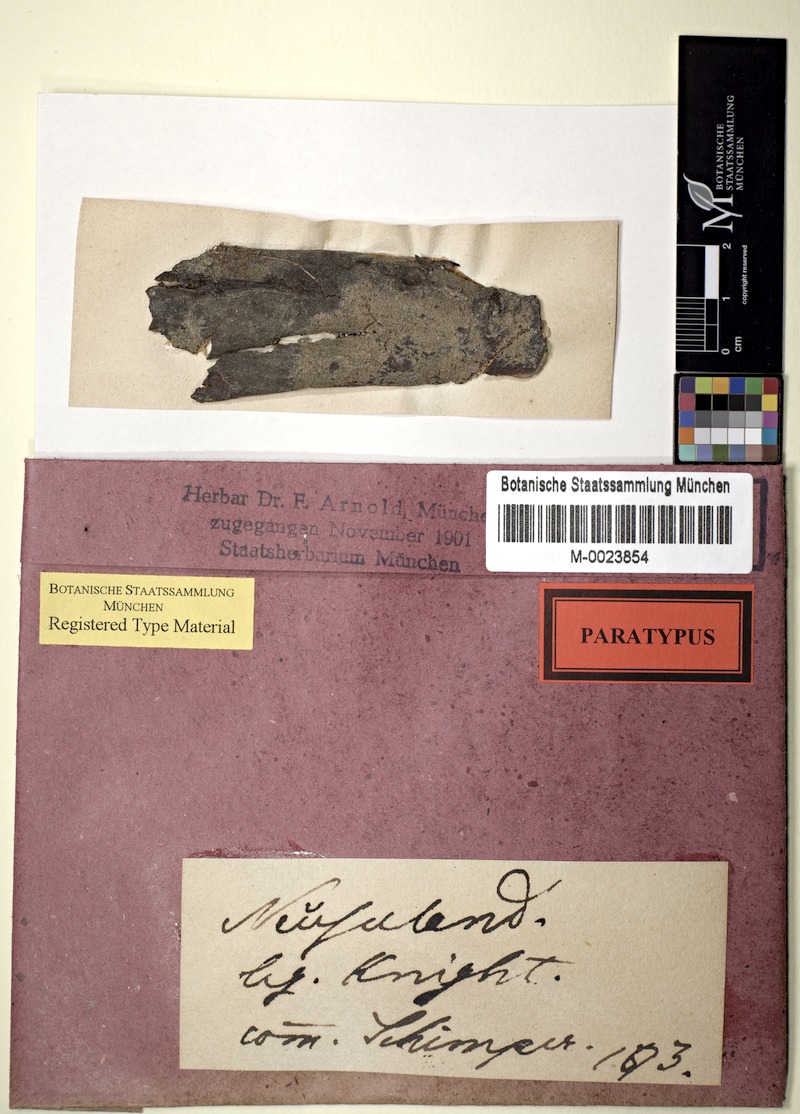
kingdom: Fungi
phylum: Ascomycota
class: Lecanoromycetes
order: Pertusariales
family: Pertusariaceae
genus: Segestria
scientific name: Segestria
